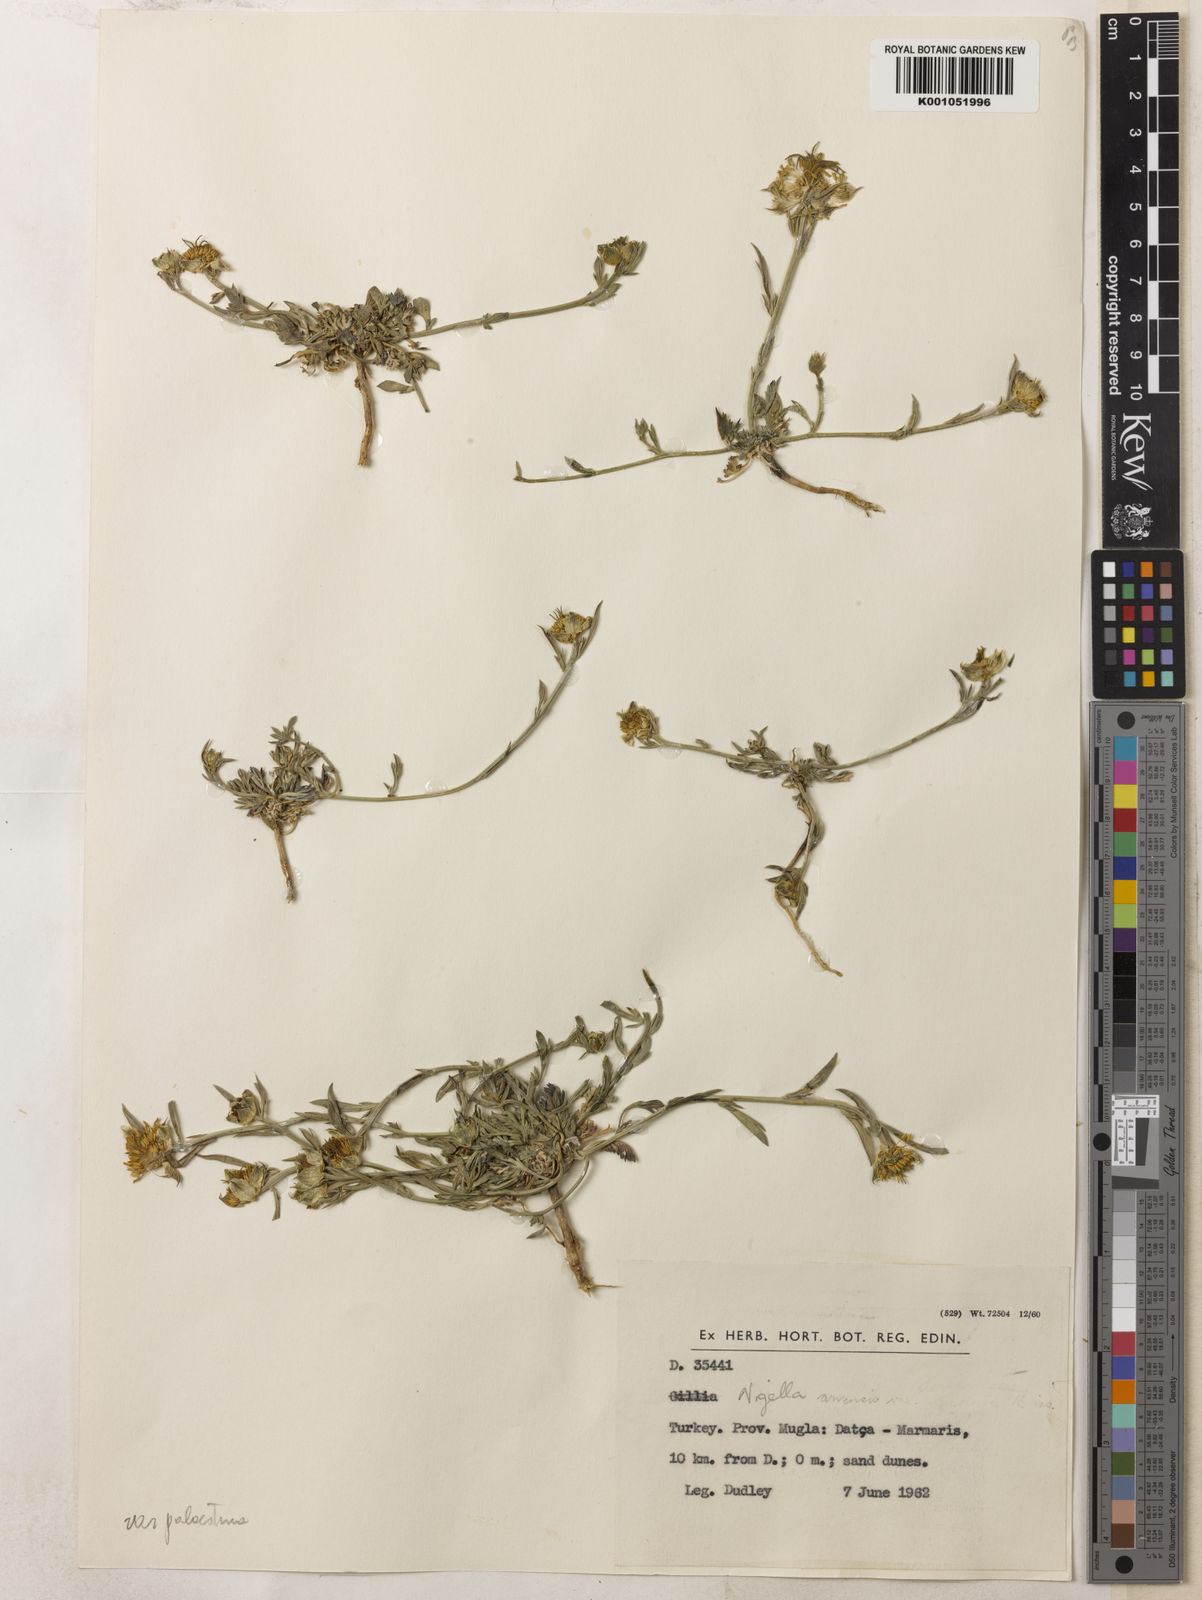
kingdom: Plantae
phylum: Tracheophyta
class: Magnoliopsida
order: Ranunculales
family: Ranunculaceae
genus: Nigella
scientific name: Nigella arvensis
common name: Wild fennel-flower
